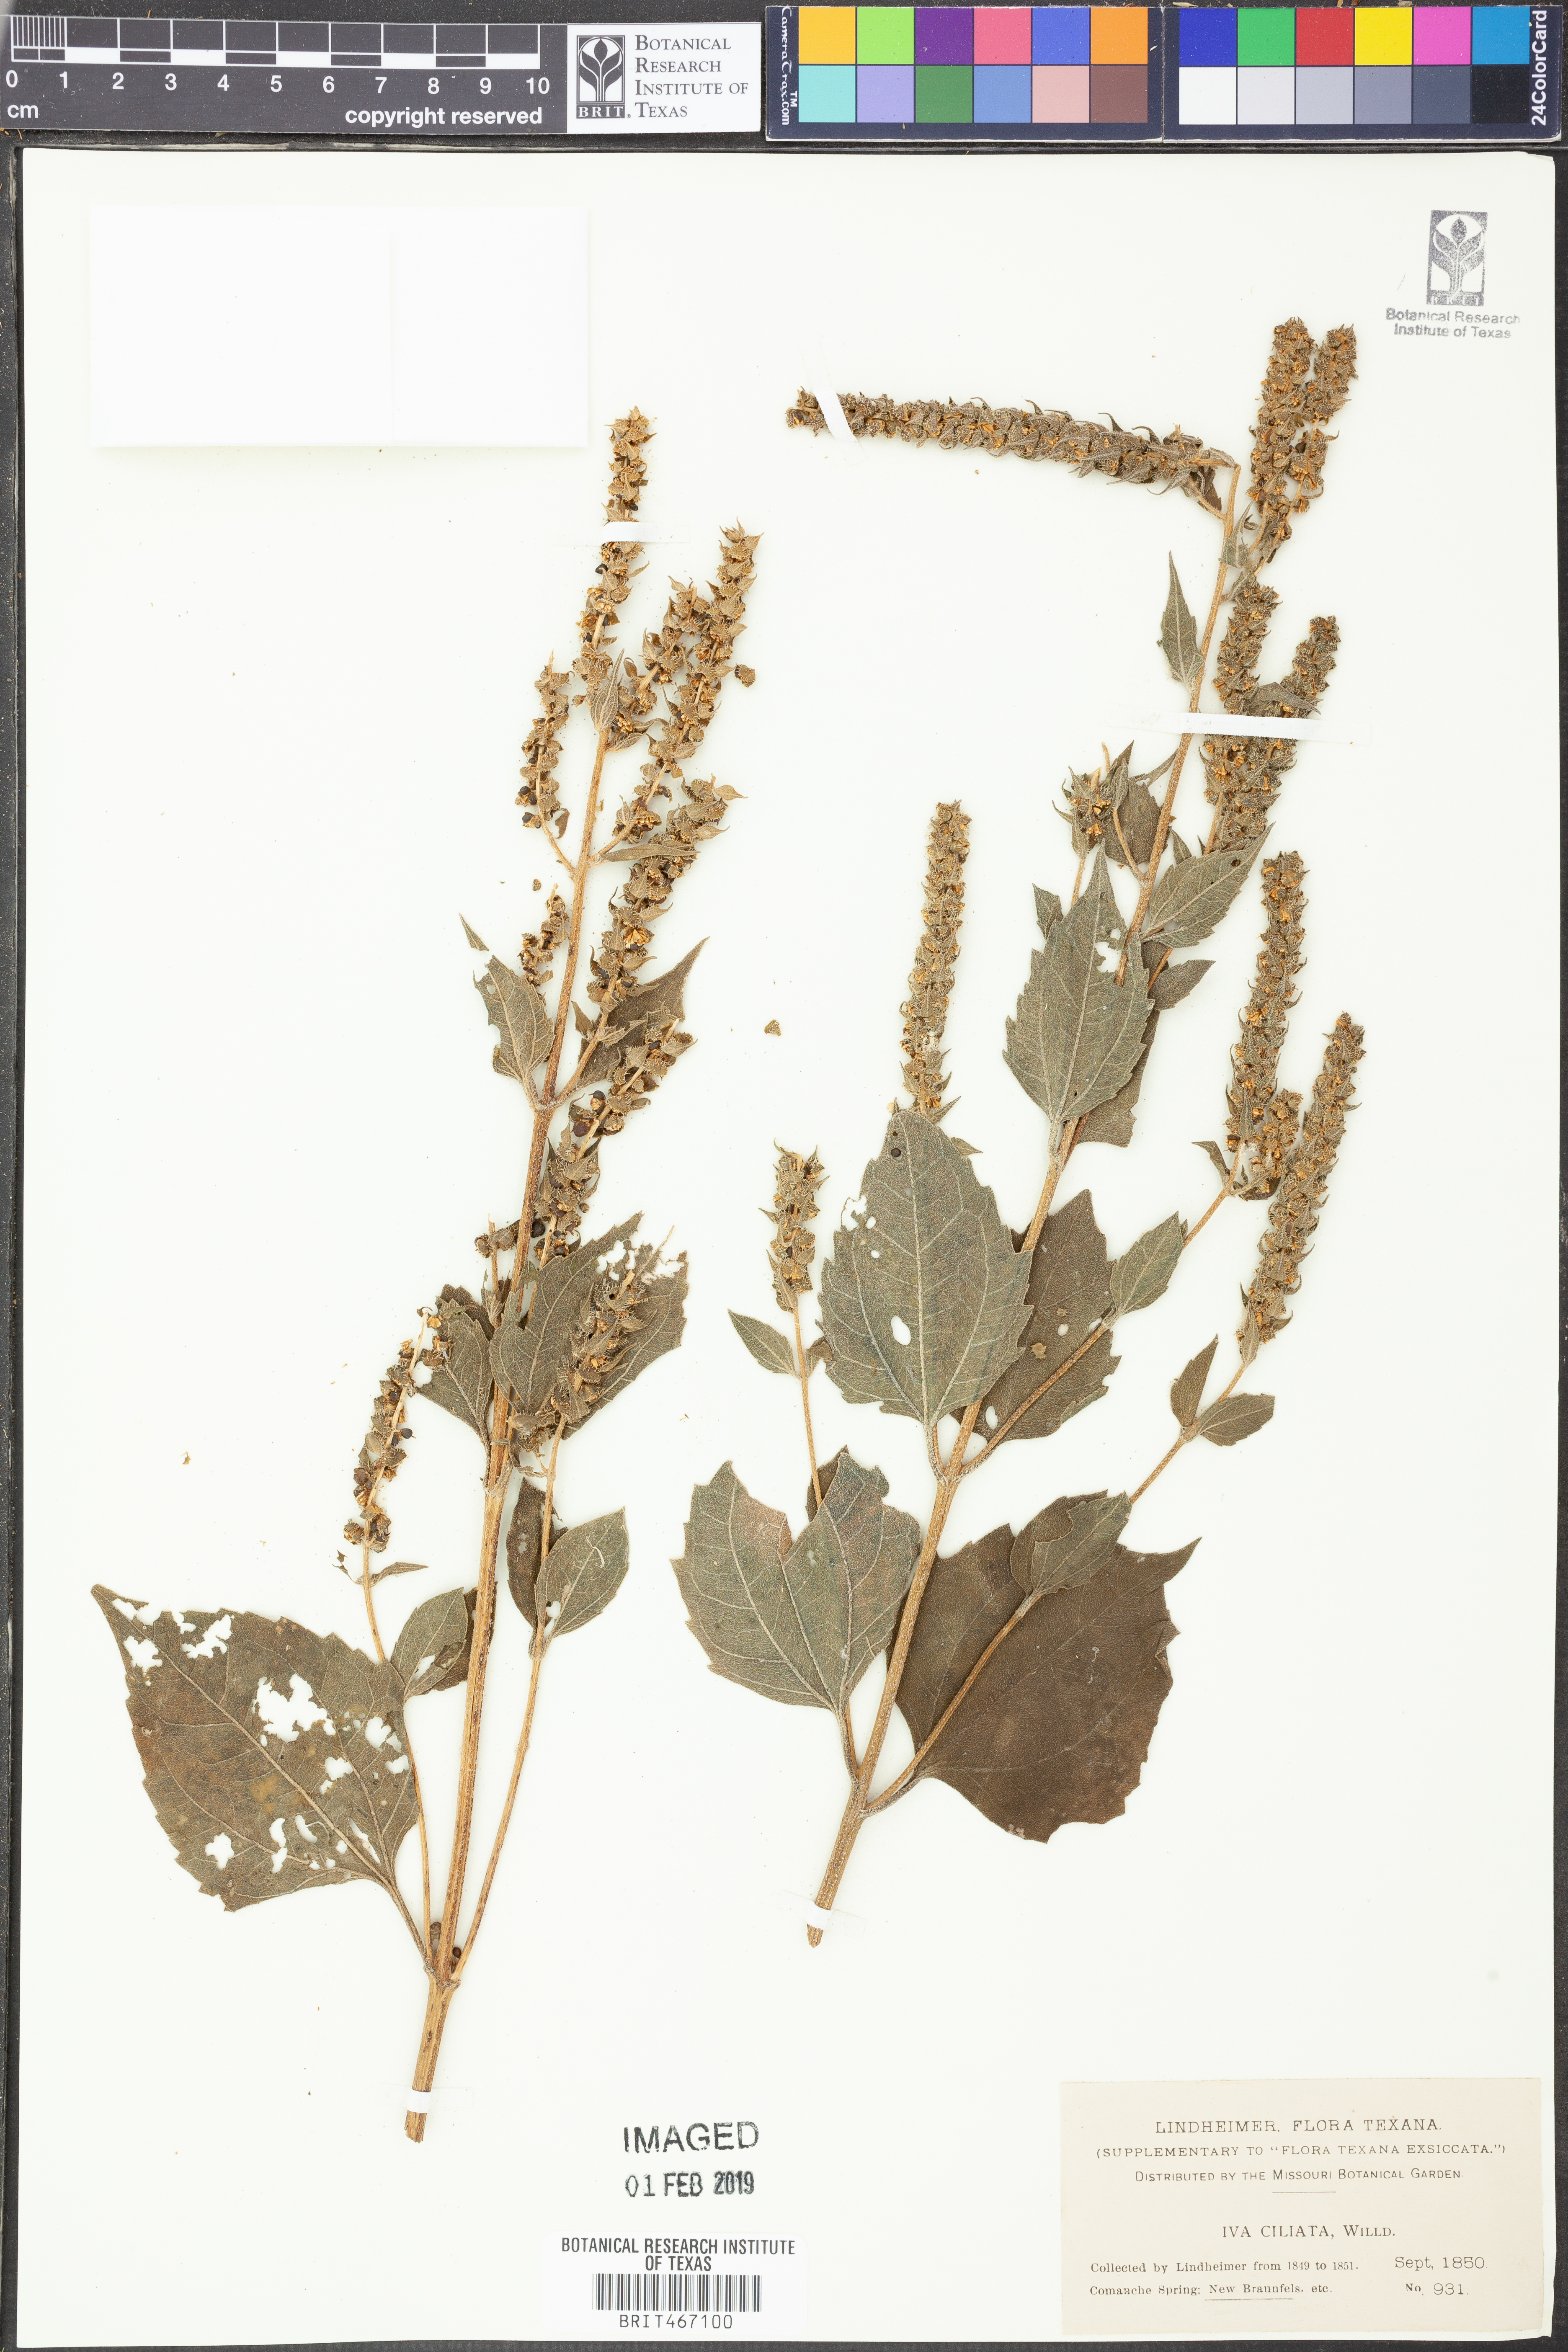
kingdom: Plantae
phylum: Tracheophyta
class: Magnoliopsida
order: Asterales
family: Asteraceae
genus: Iva
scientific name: Iva annua
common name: Marsh-elder
